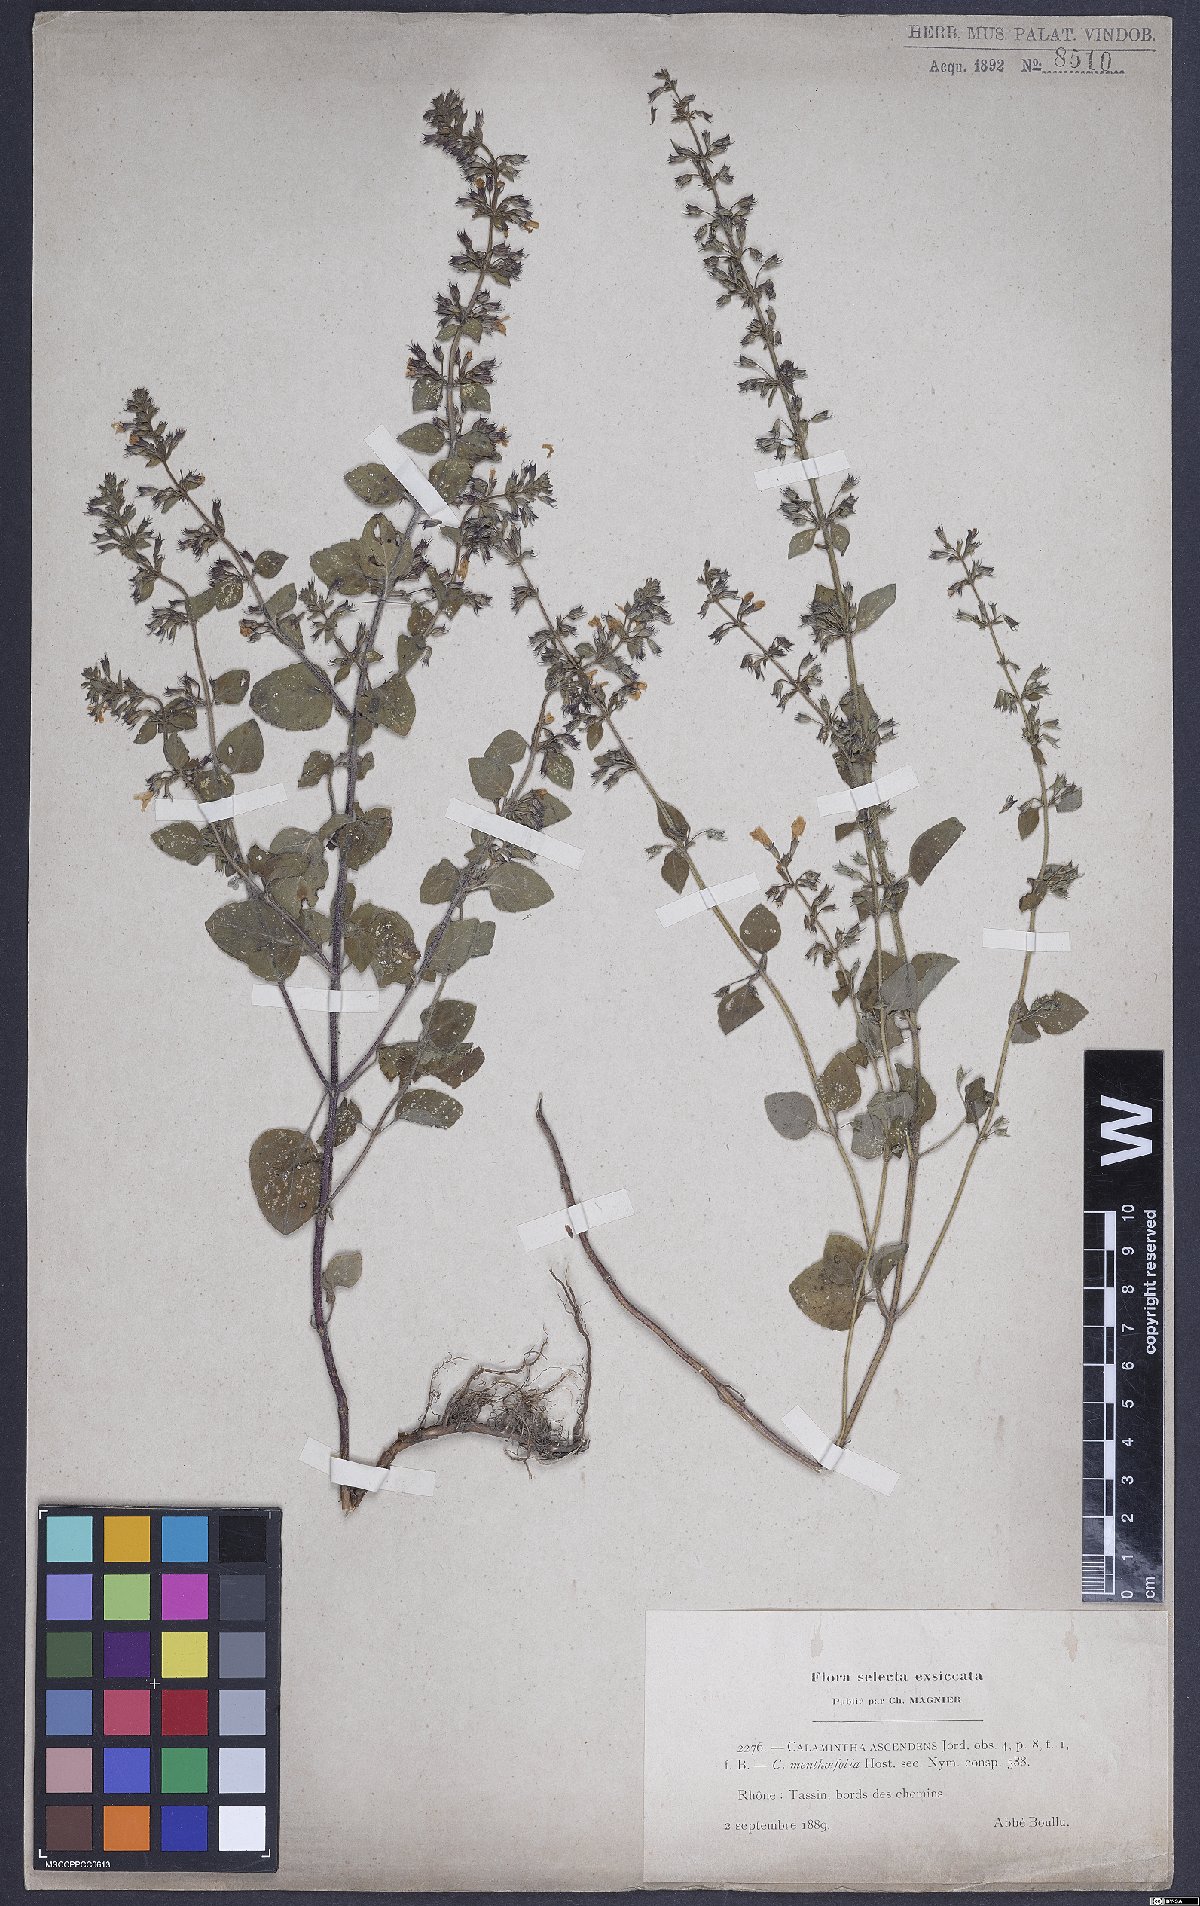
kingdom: Plantae
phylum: Tracheophyta
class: Magnoliopsida
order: Lamiales
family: Lamiaceae
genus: Clinopodium
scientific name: Clinopodium menthifolium
